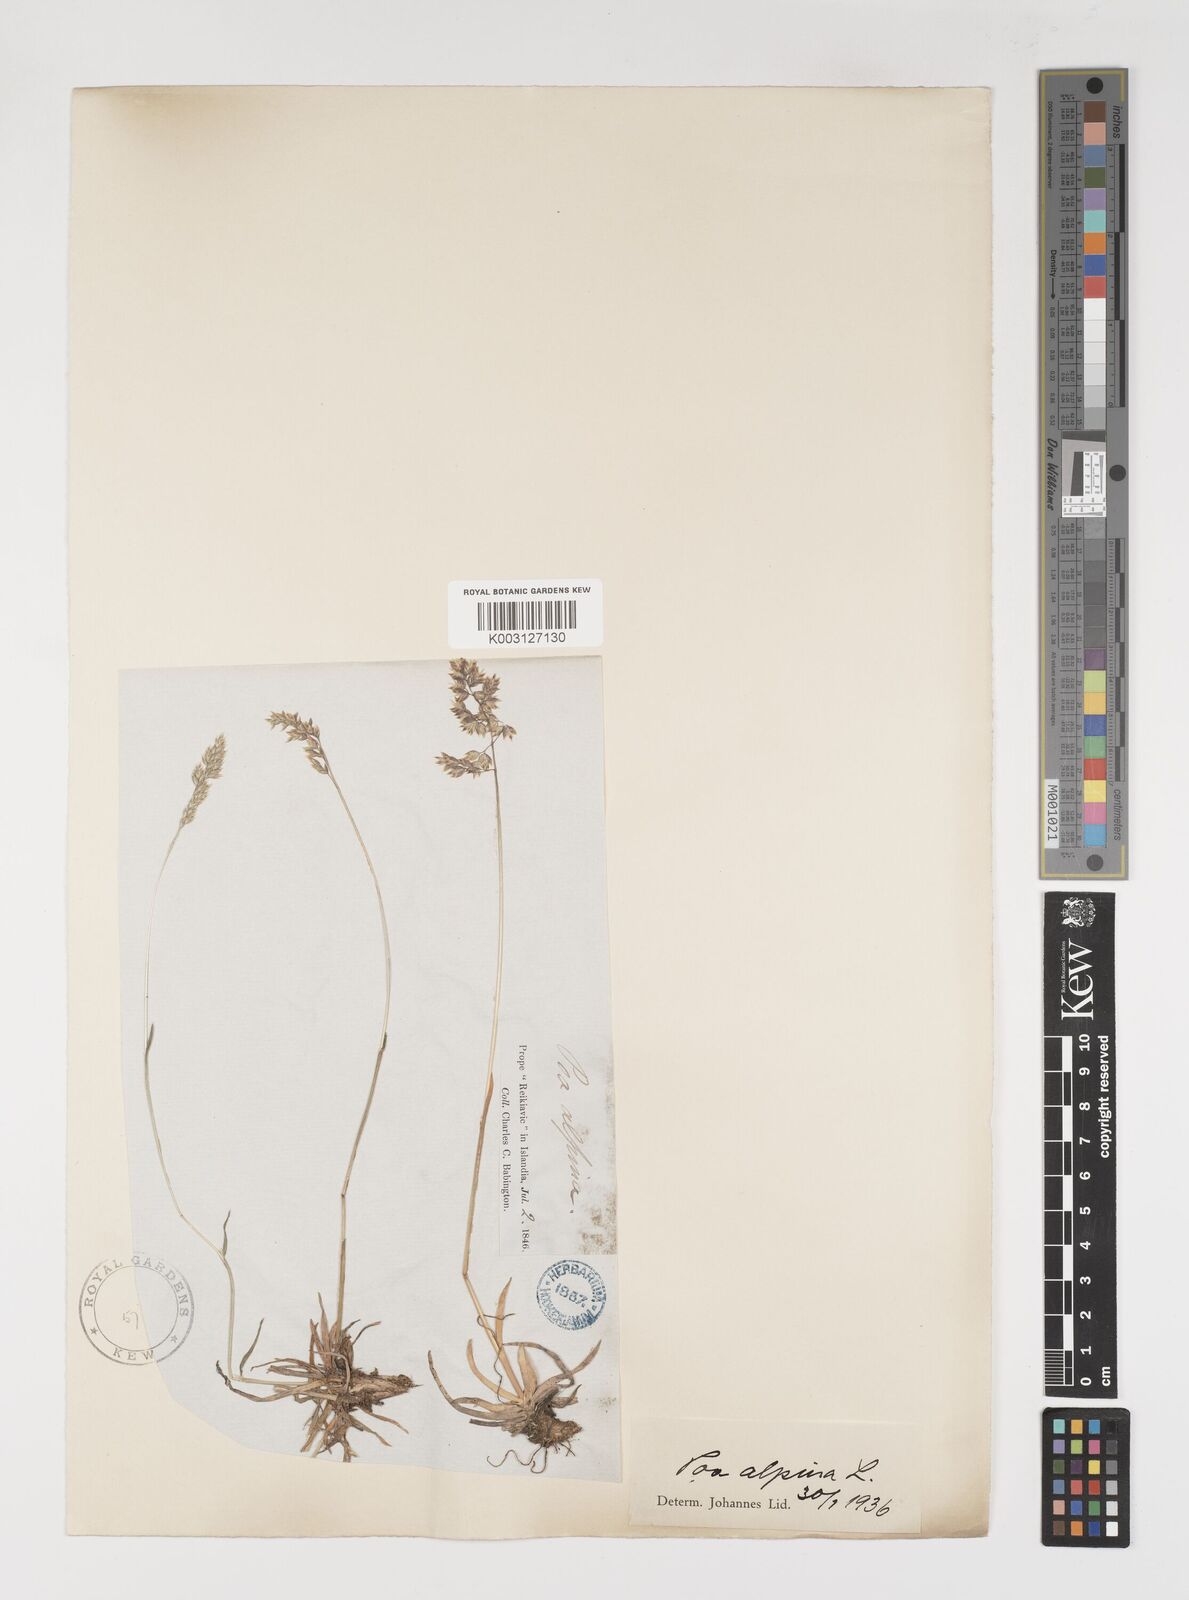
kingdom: Plantae
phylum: Tracheophyta
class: Liliopsida
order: Poales
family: Poaceae
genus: Poa
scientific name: Poa alpina
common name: Alpine bluegrass
